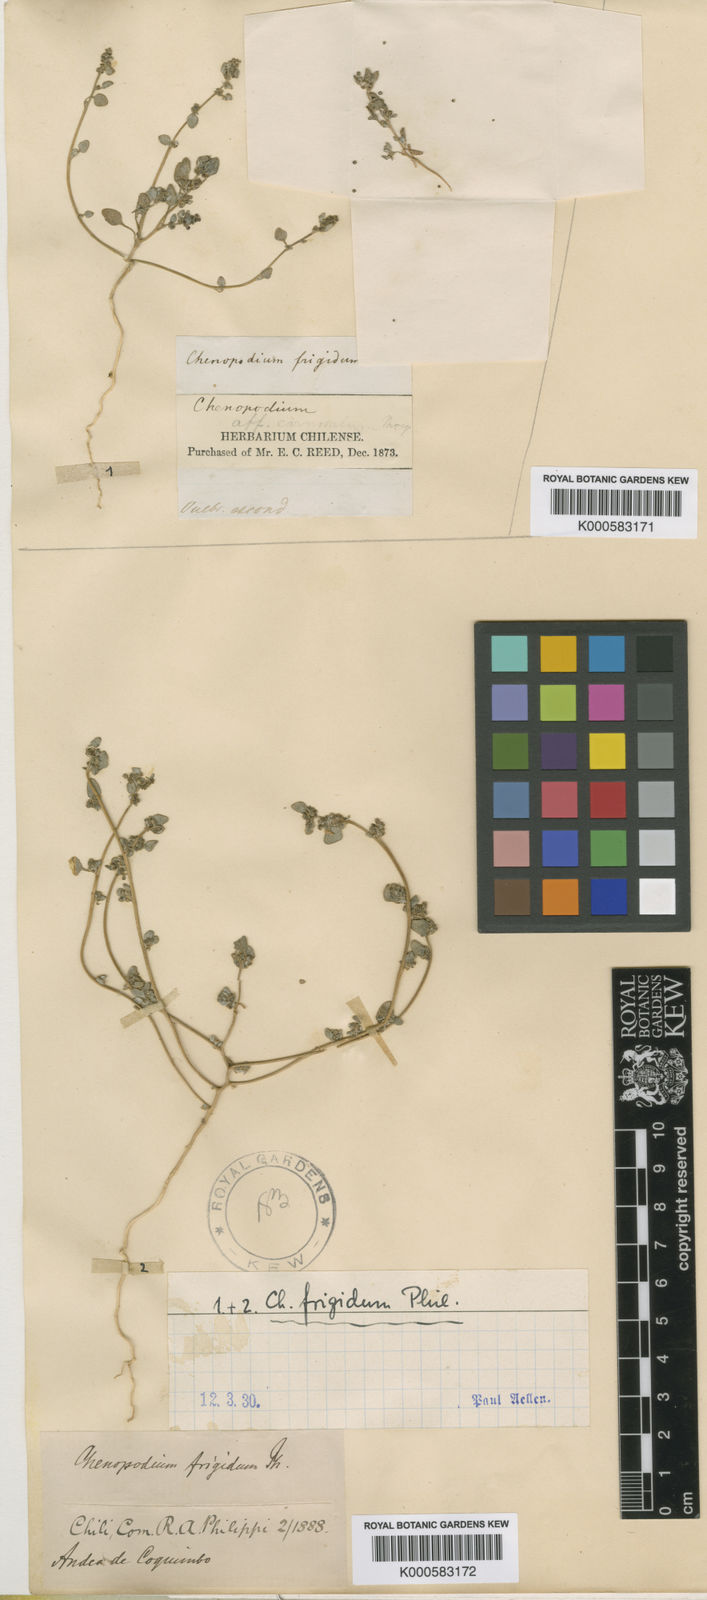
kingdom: Plantae
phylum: Tracheophyta
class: Magnoliopsida
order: Caryophyllales
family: Amaranthaceae
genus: Oxybasis
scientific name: Oxybasis frigida
